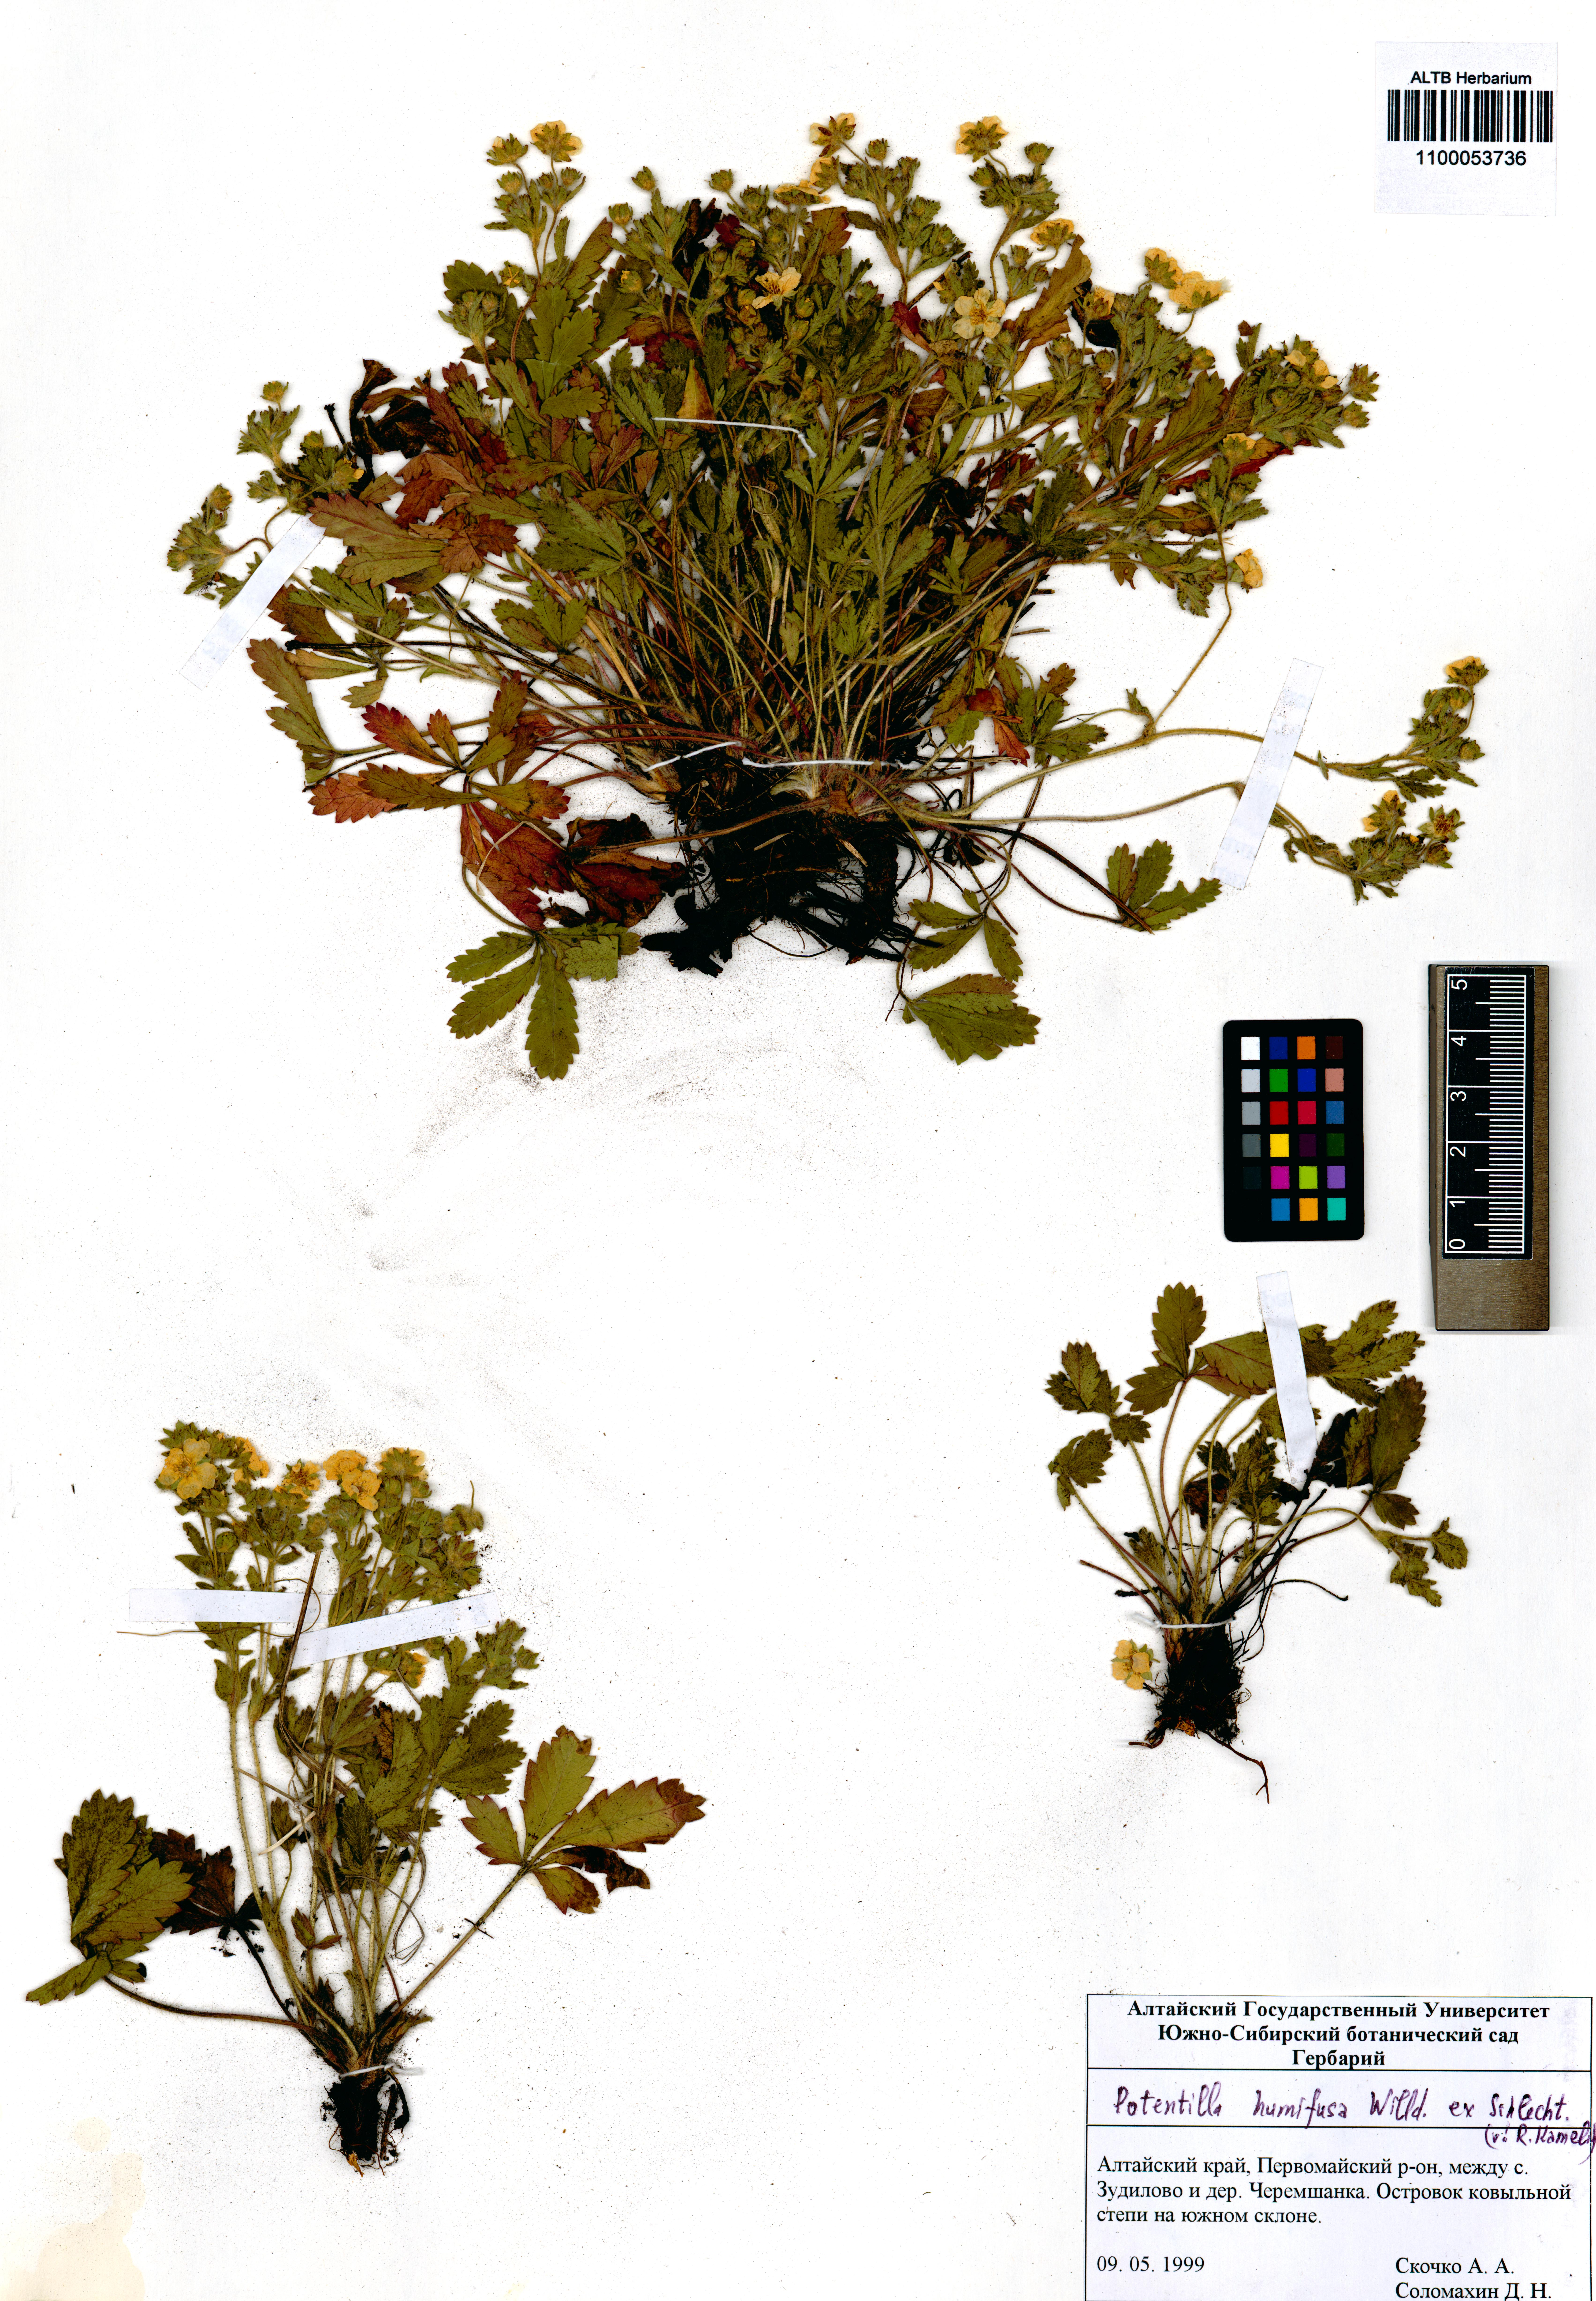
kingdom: Plantae
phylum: Tracheophyta
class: Magnoliopsida
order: Rosales
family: Rosaceae
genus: Potentilla
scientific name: Potentilla humifusa
